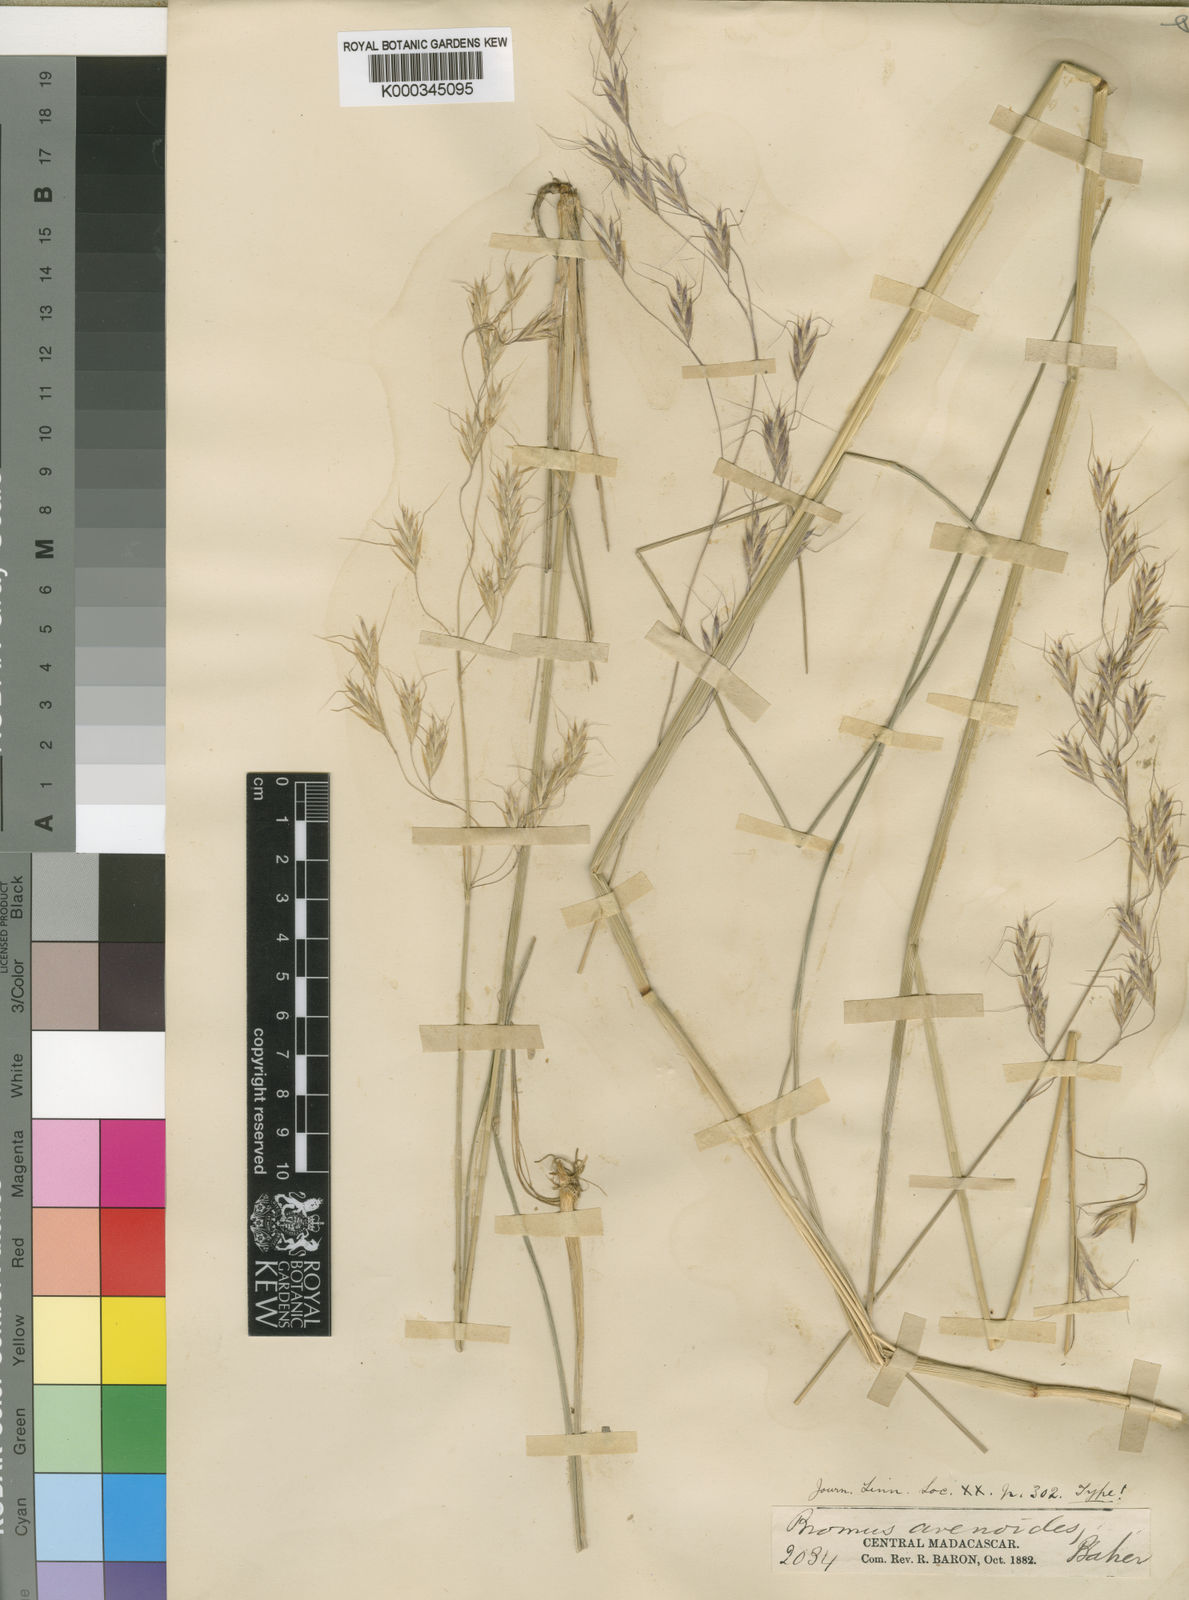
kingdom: Plantae
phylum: Tracheophyta
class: Liliopsida
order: Poales
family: Poaceae
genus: Trisetopsis
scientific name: Trisetopsis elongata
